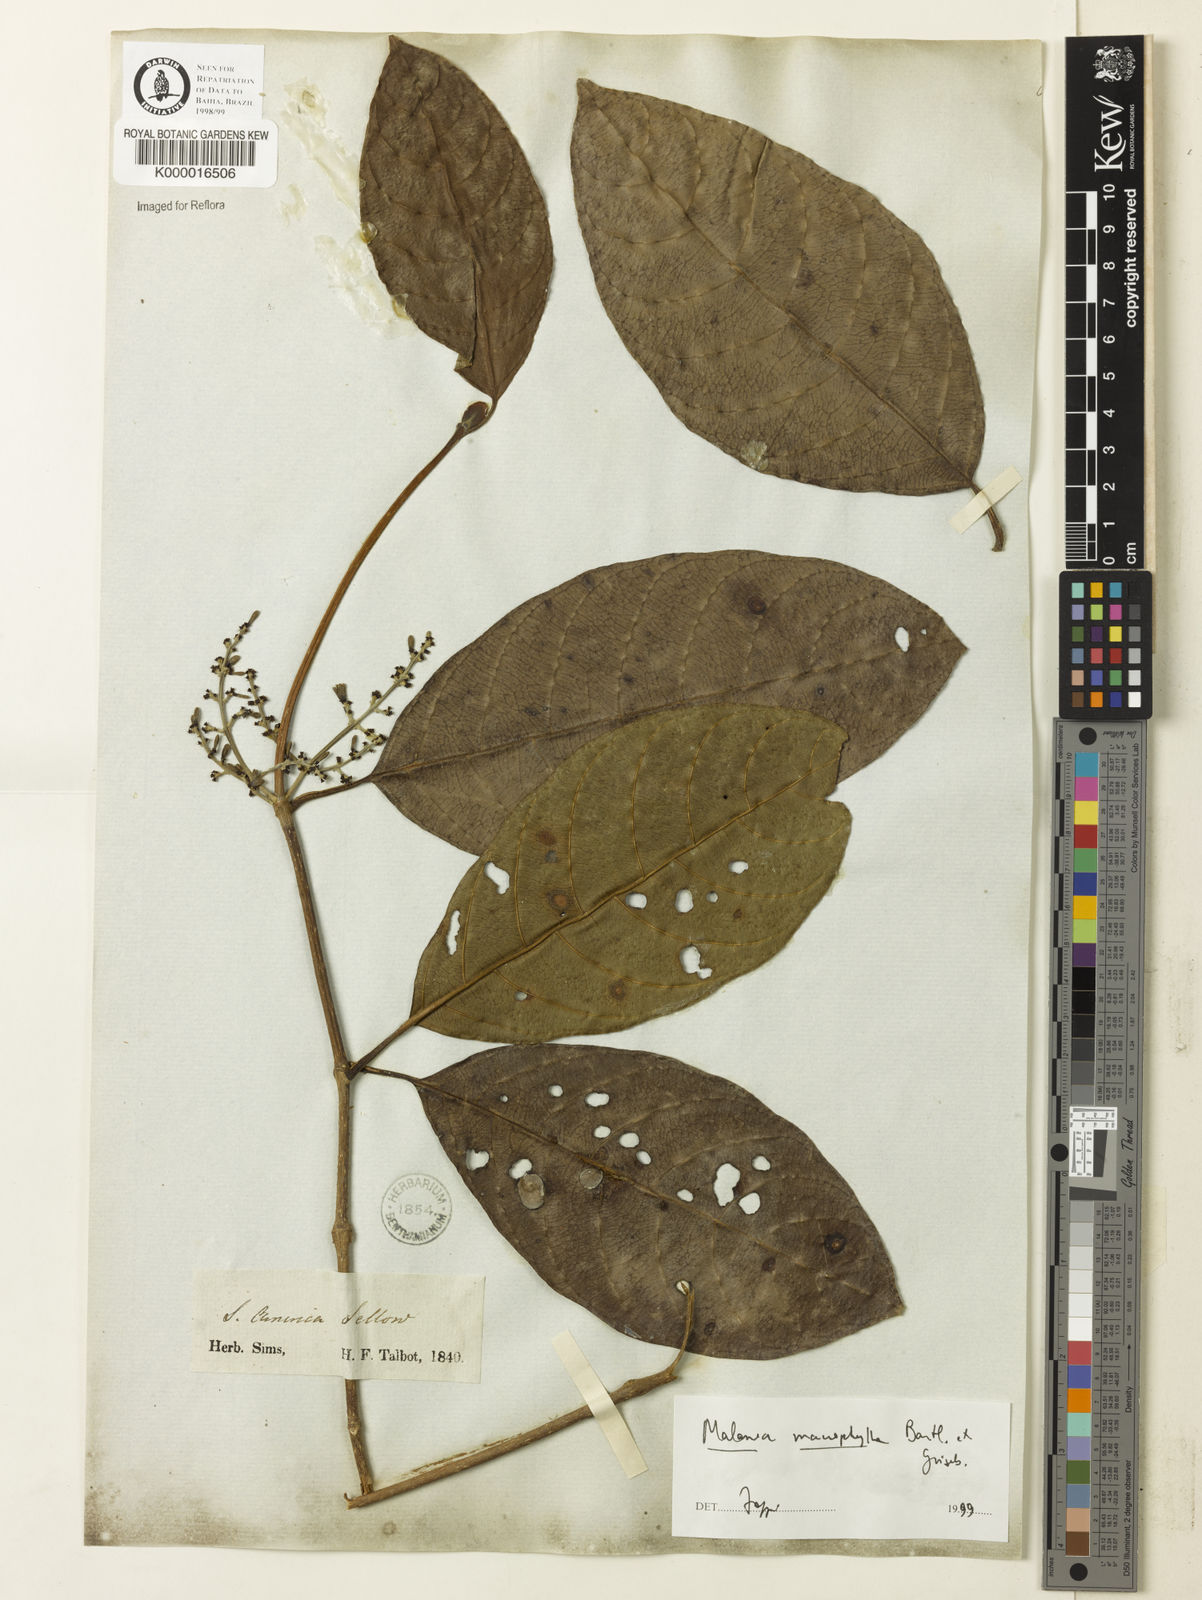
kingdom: Plantae
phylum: Tracheophyta
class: Magnoliopsida
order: Gentianales
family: Rubiaceae
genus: Malanea
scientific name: Malanea glabra
